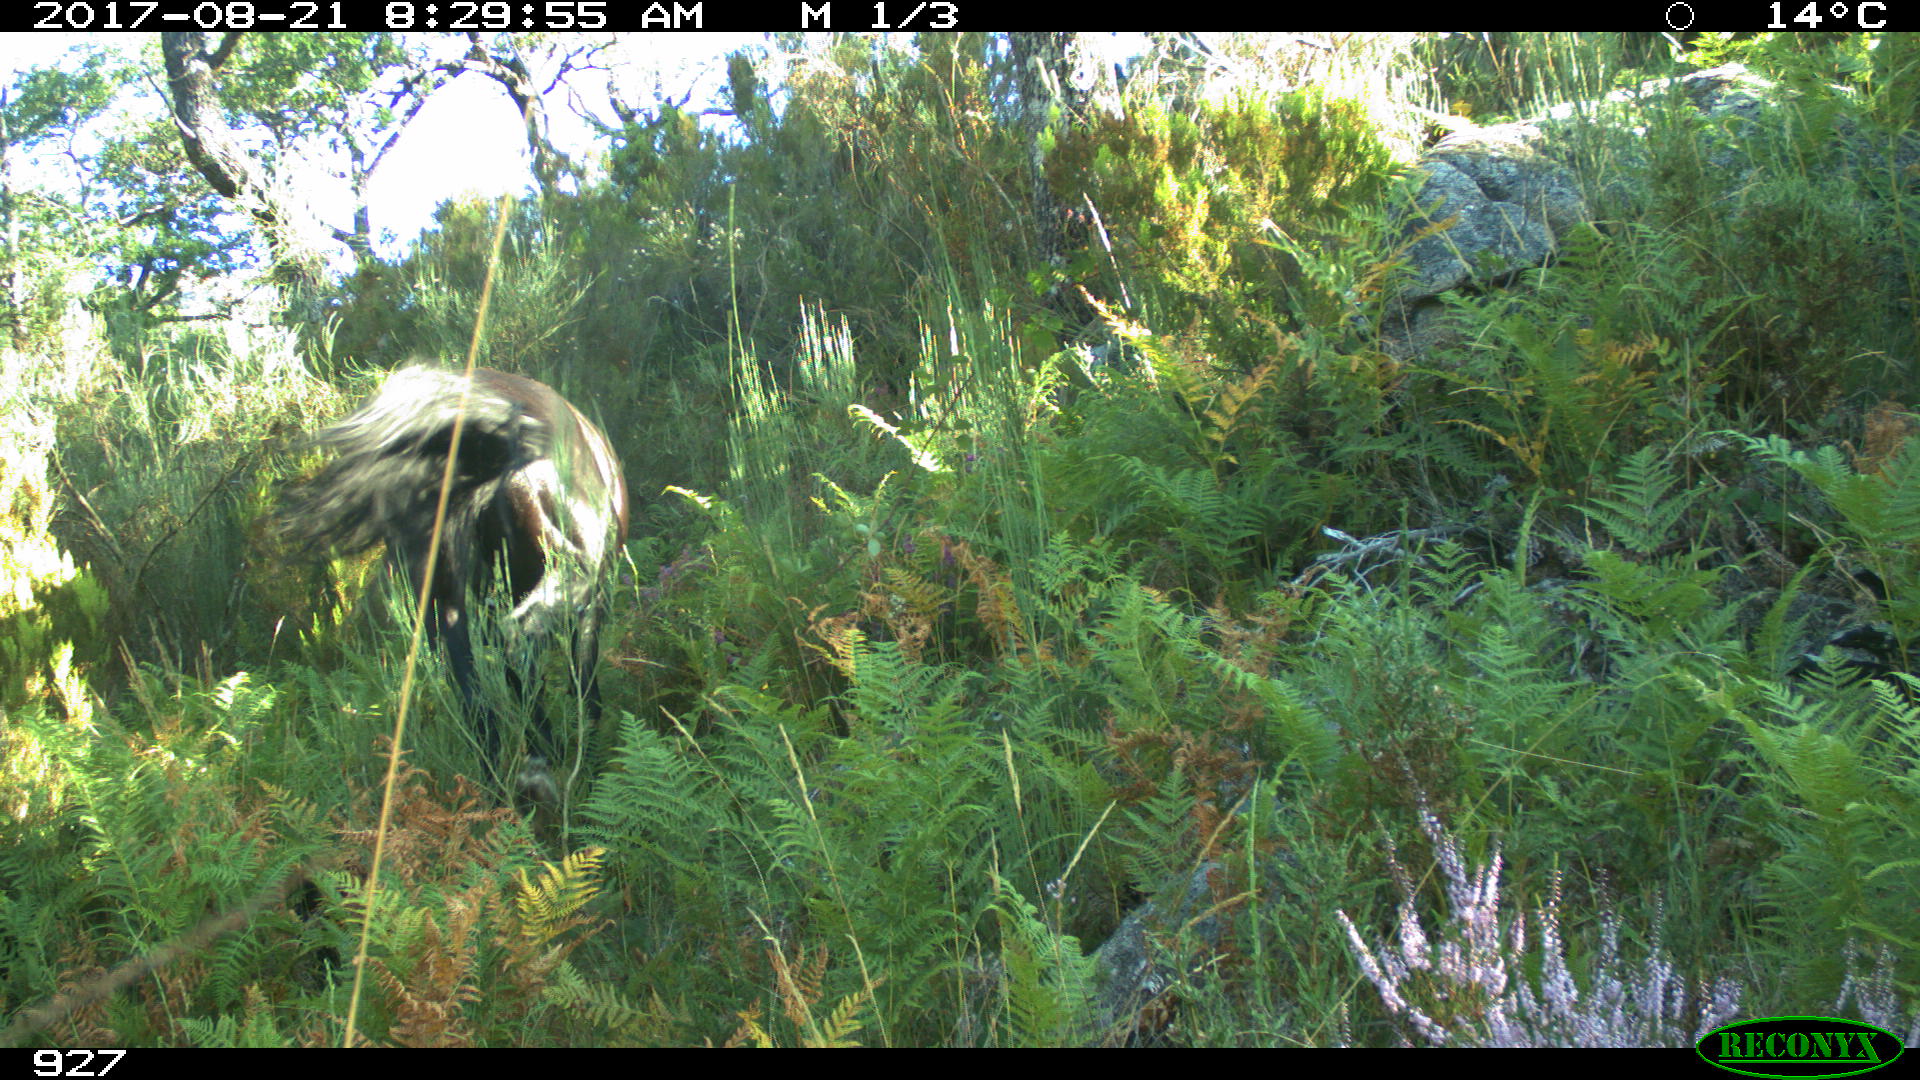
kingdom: Animalia
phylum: Chordata
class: Mammalia
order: Perissodactyla
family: Equidae
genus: Equus
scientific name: Equus caballus
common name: Horse
